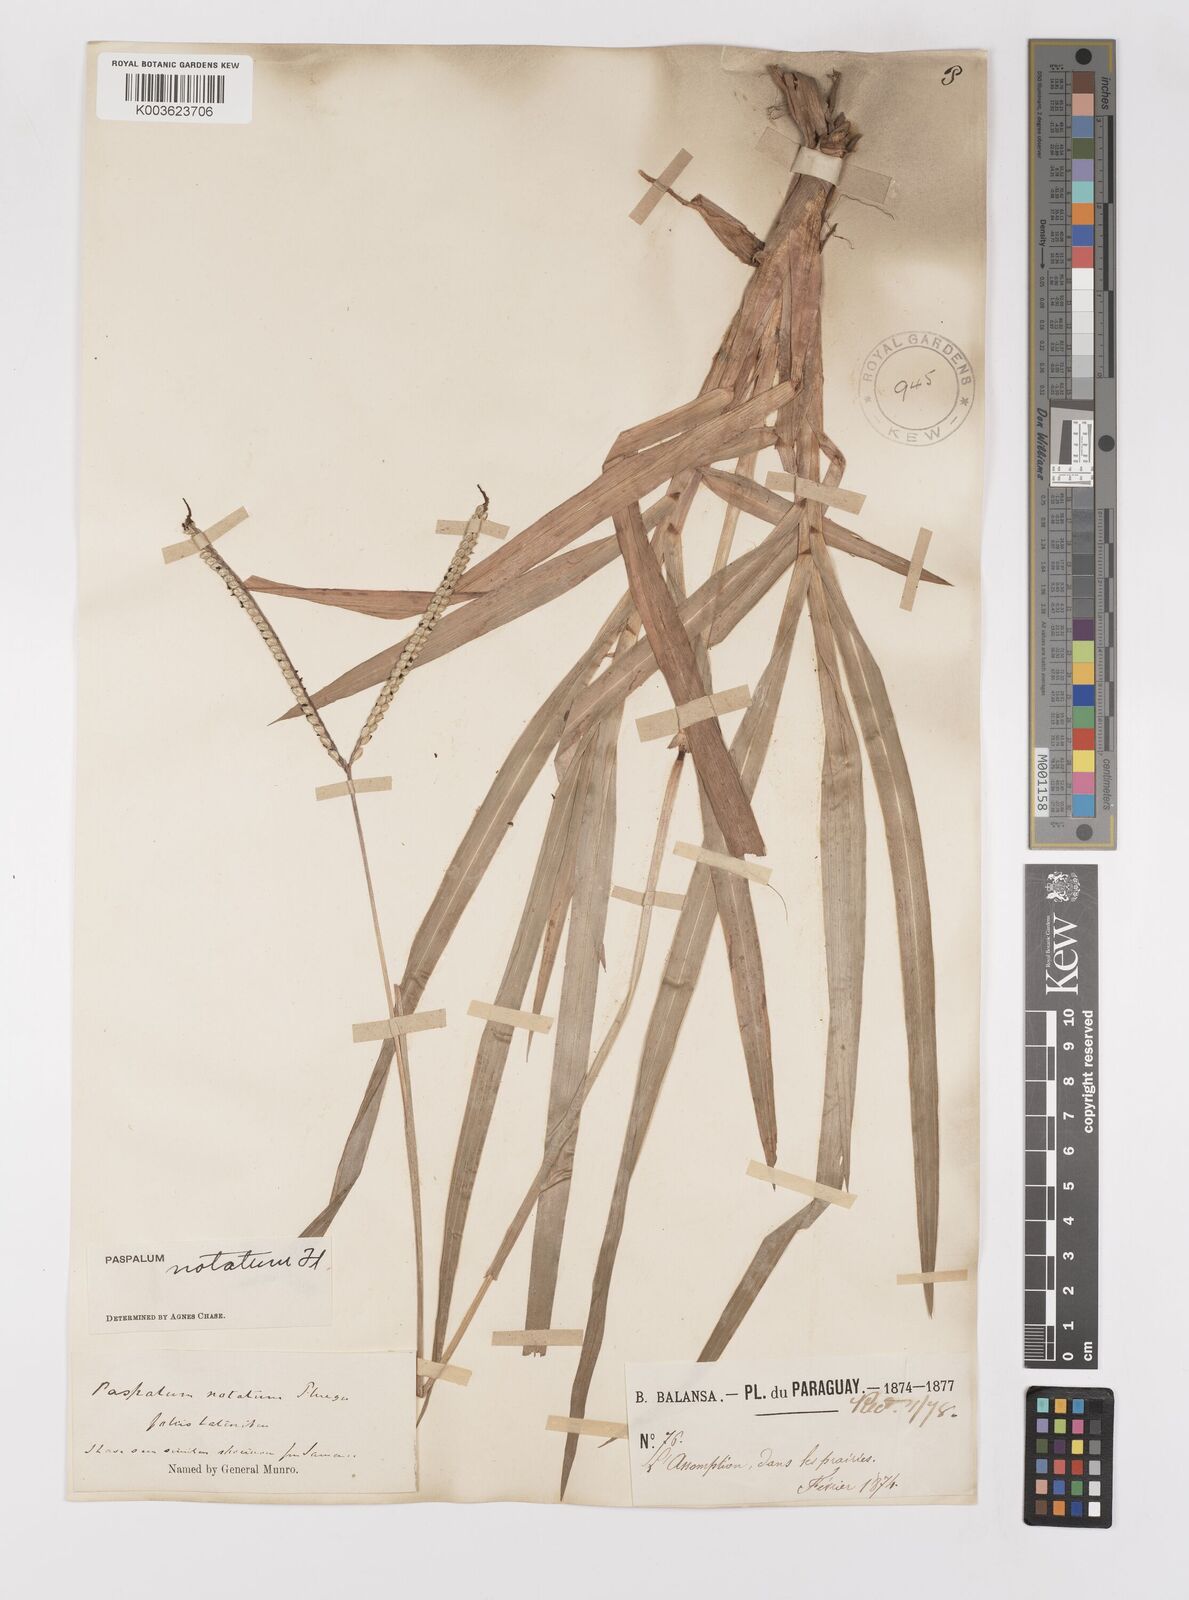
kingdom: Plantae
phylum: Tracheophyta
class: Liliopsida
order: Poales
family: Poaceae
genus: Paspalum
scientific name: Paspalum notatum
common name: Bahiagrass
